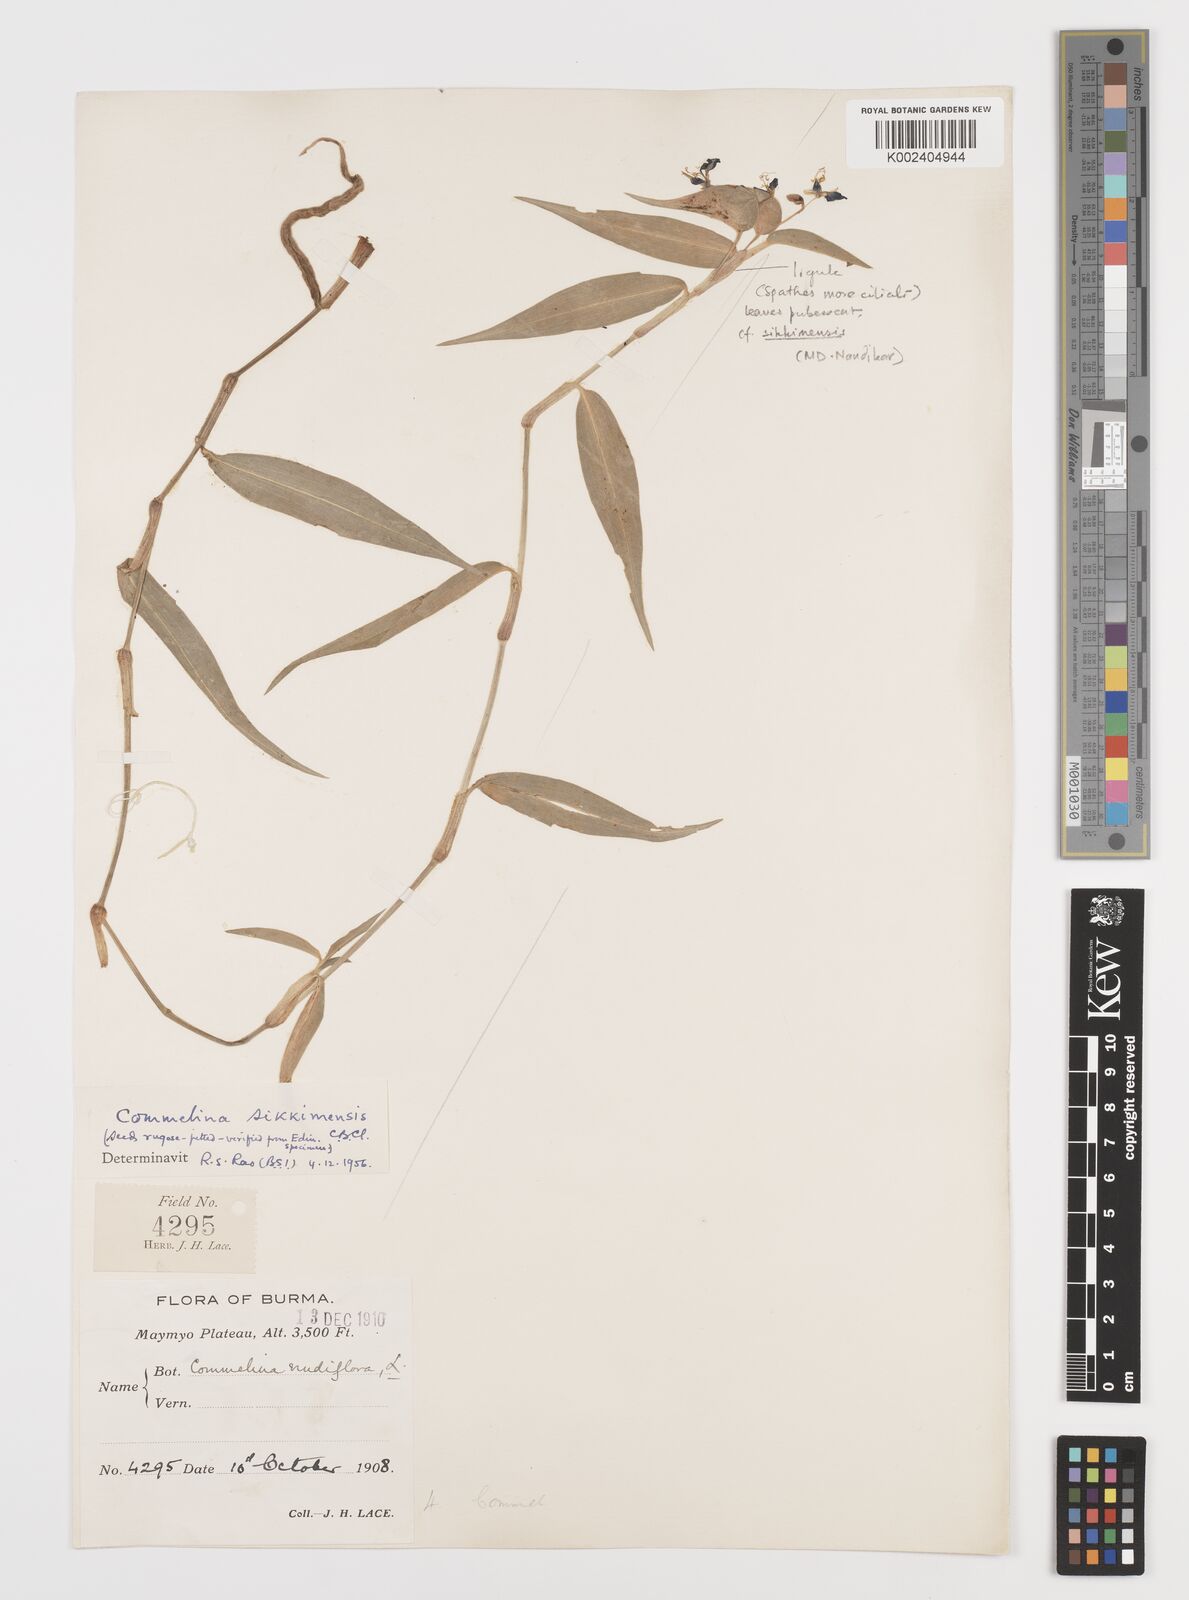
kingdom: Plantae
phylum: Tracheophyta
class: Liliopsida
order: Commelinales
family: Commelinaceae
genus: Commelina
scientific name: Commelina sikkimensis
